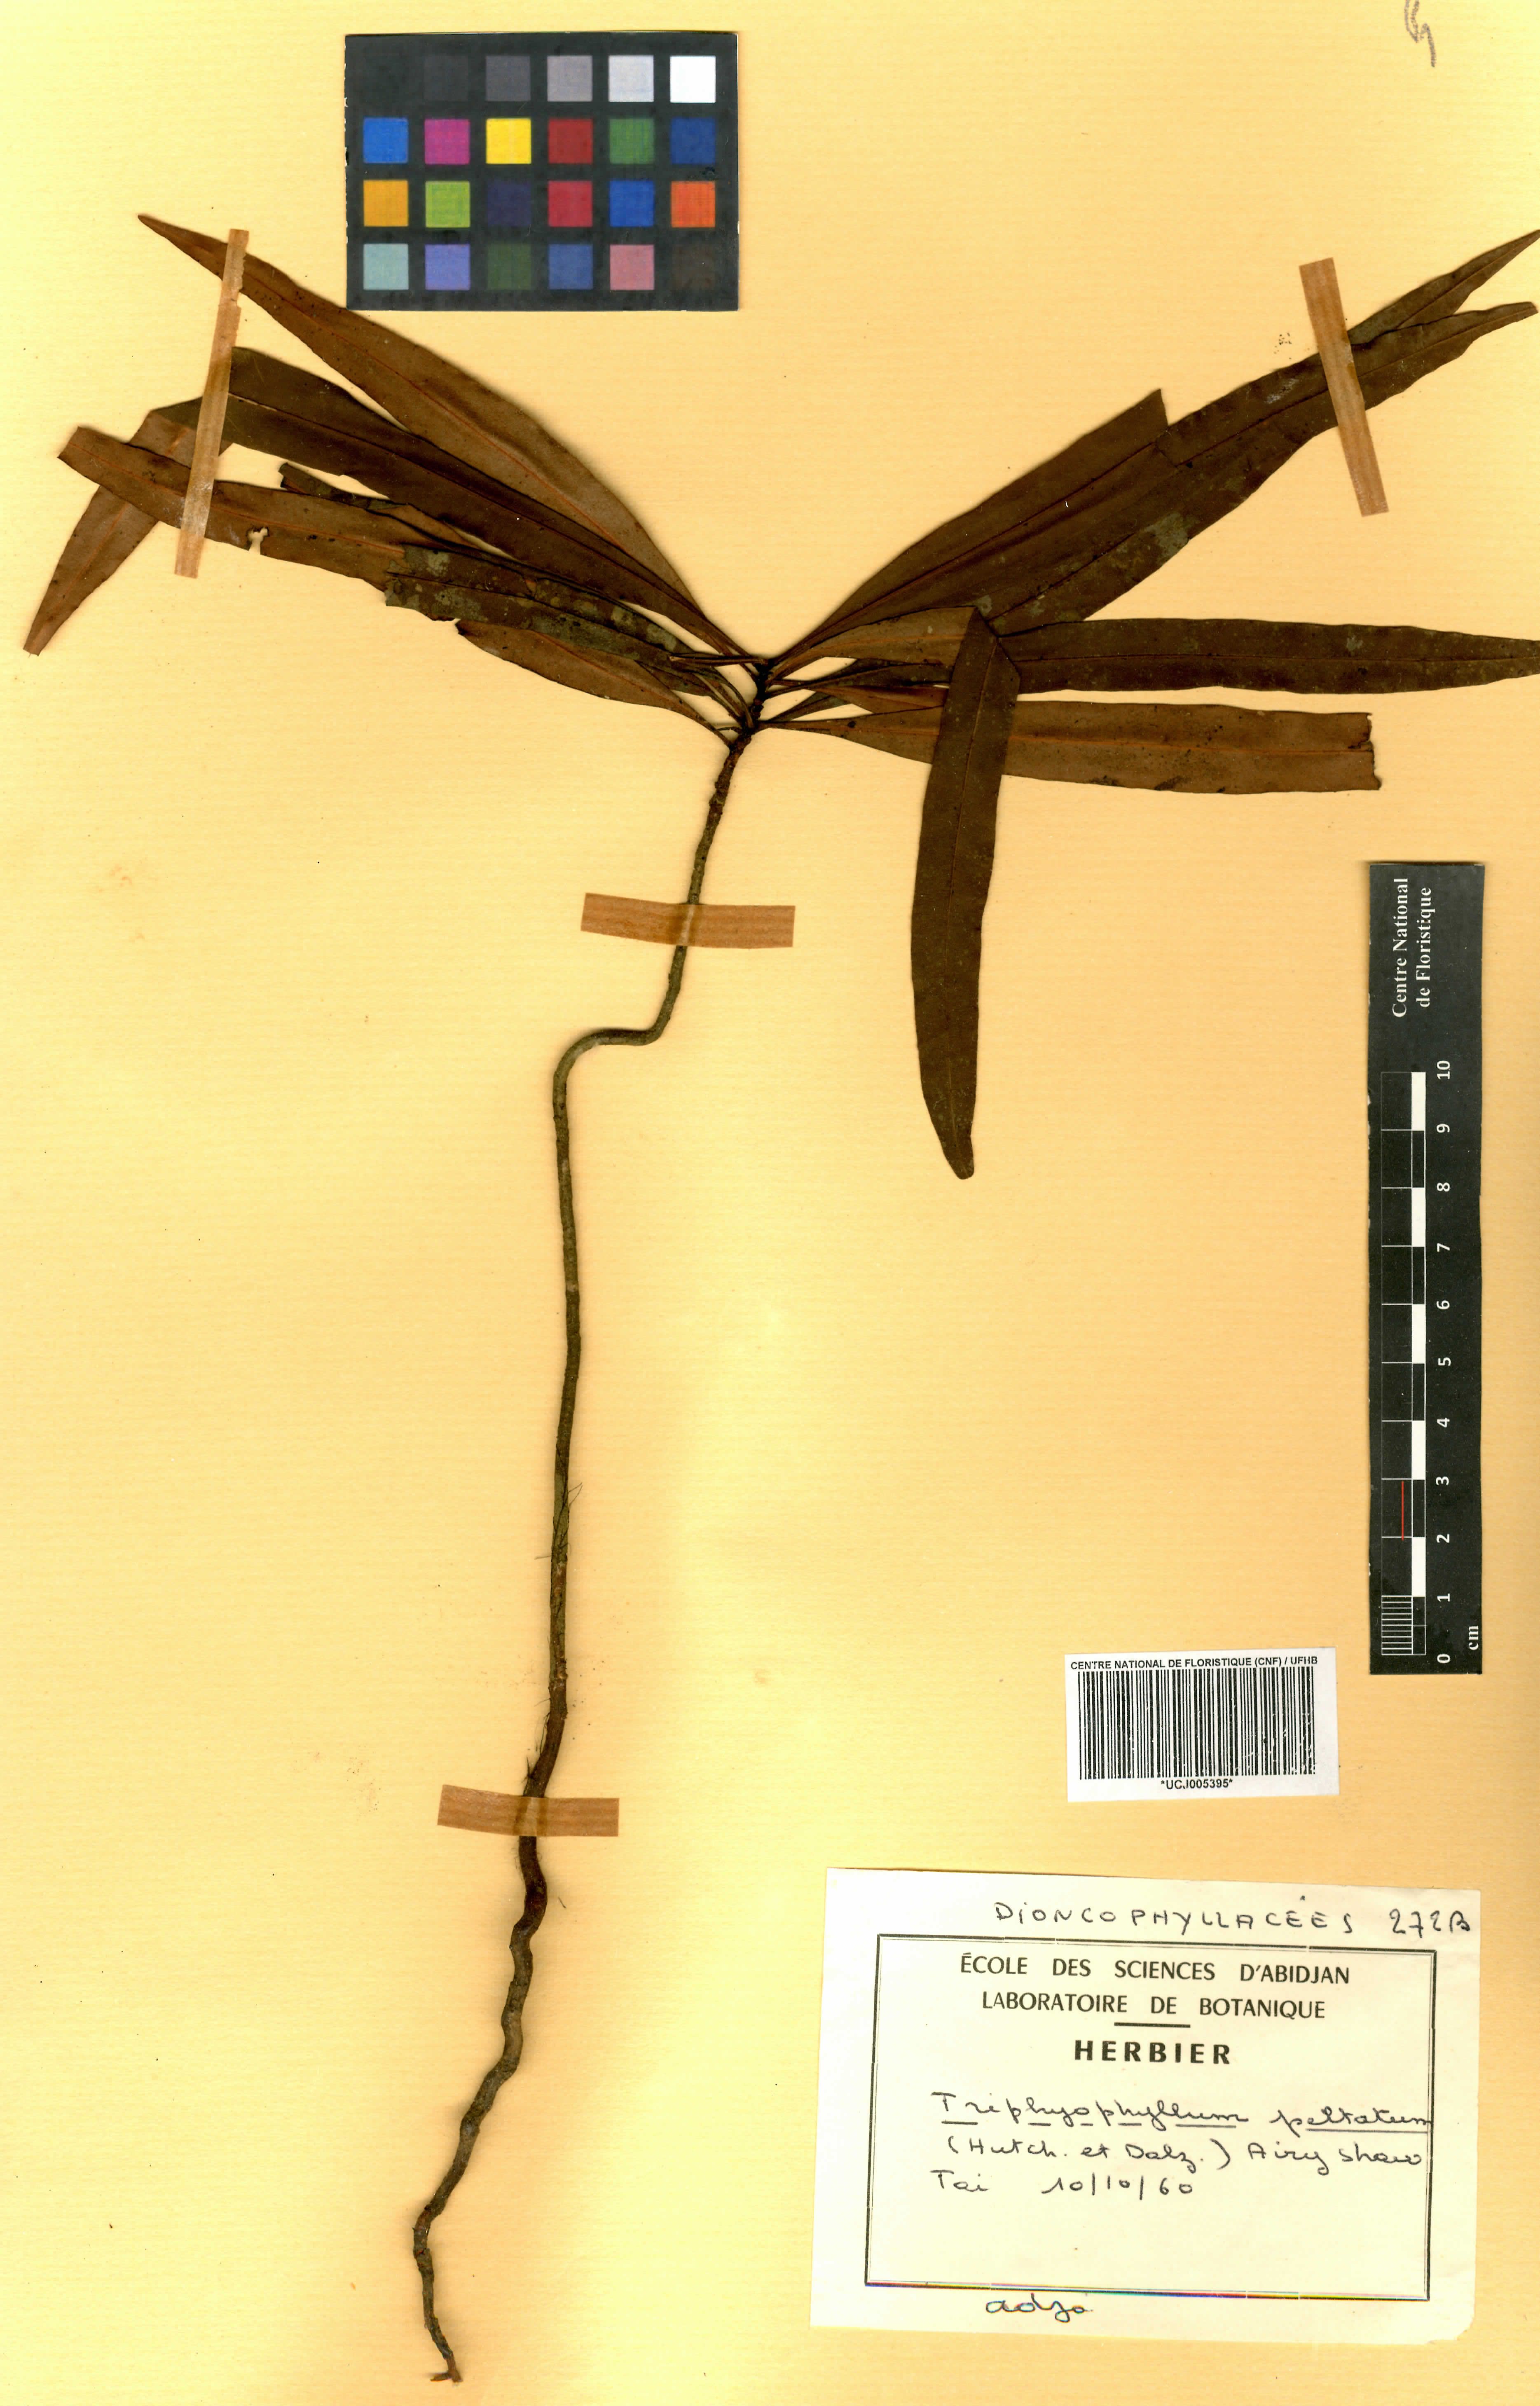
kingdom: Plantae
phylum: Tracheophyta
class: Magnoliopsida
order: Caryophyllales
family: Dioncophyllaceae
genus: Triphyophyllum
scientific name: Triphyophyllum peltatum
